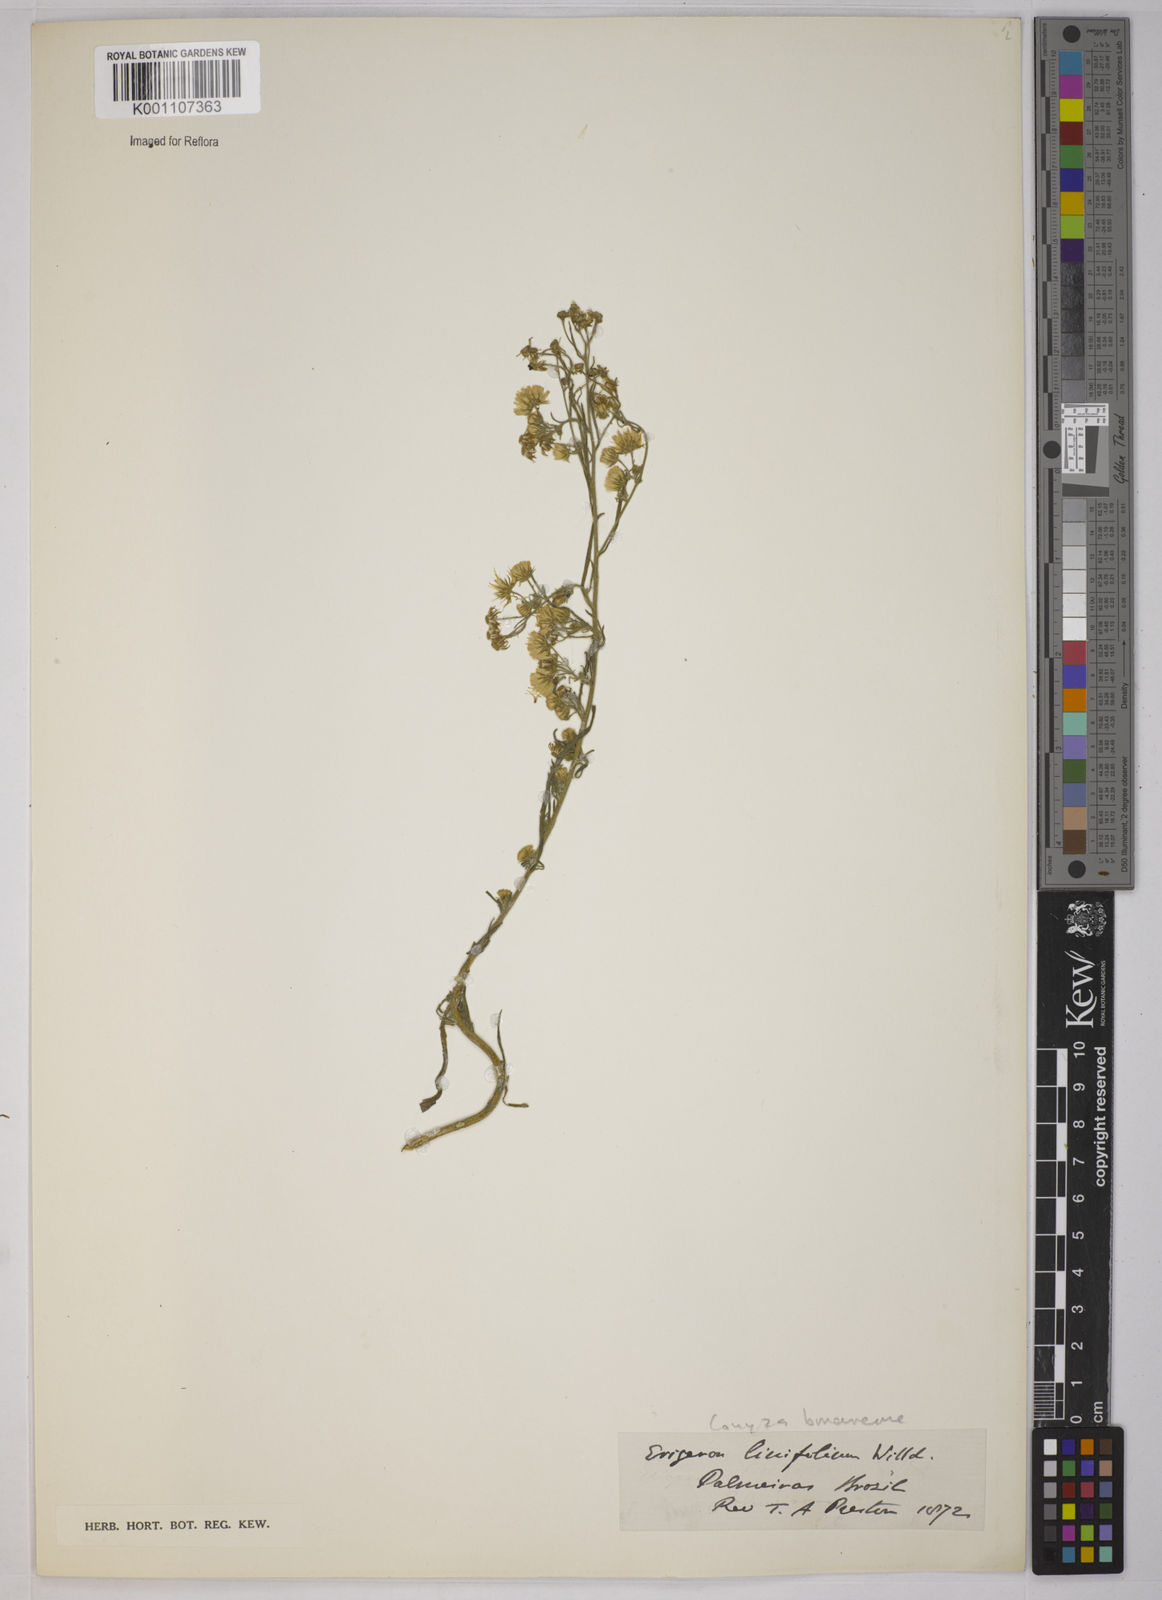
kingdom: Plantae
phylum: Tracheophyta
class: Magnoliopsida
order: Asterales
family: Asteraceae
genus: Erigeron
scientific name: Erigeron bonariensis
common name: Argentine fleabane
